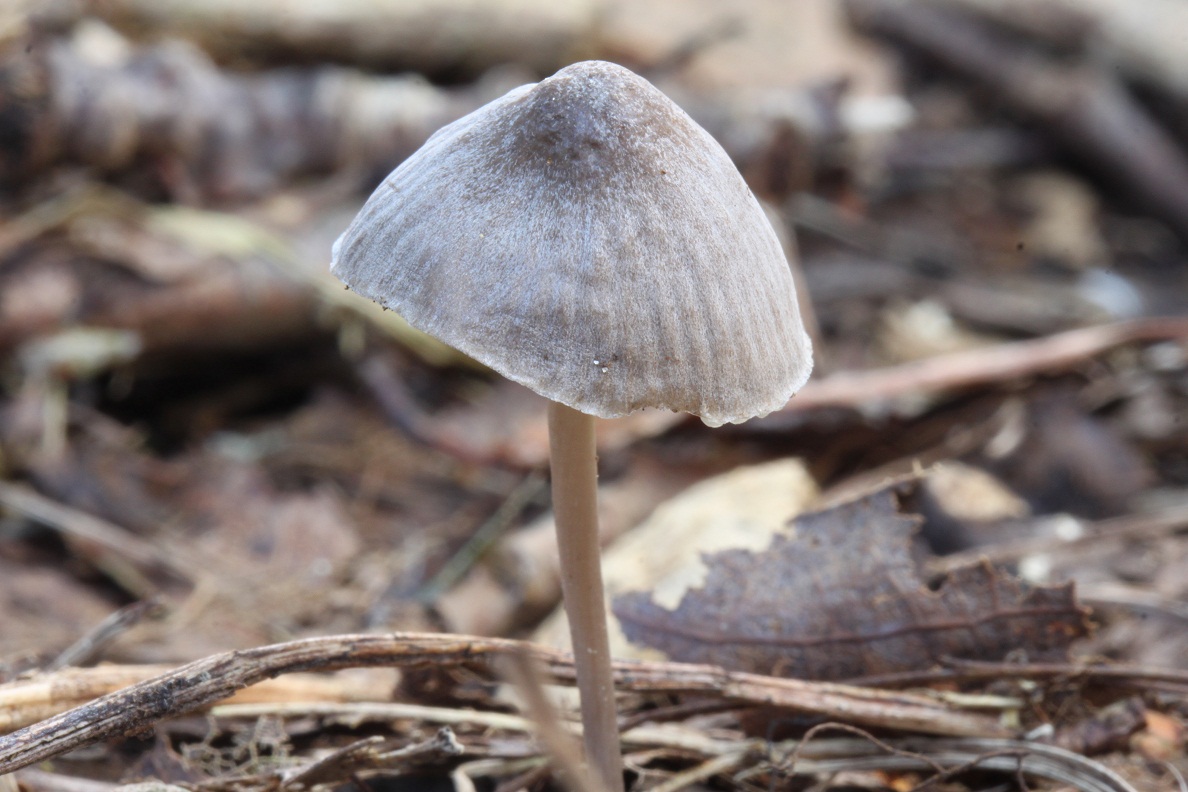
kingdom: Fungi
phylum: Basidiomycota
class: Agaricomycetes
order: Agaricales
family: Mycenaceae
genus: Mycena
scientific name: Mycena abramsii
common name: sommer-huesvamp
